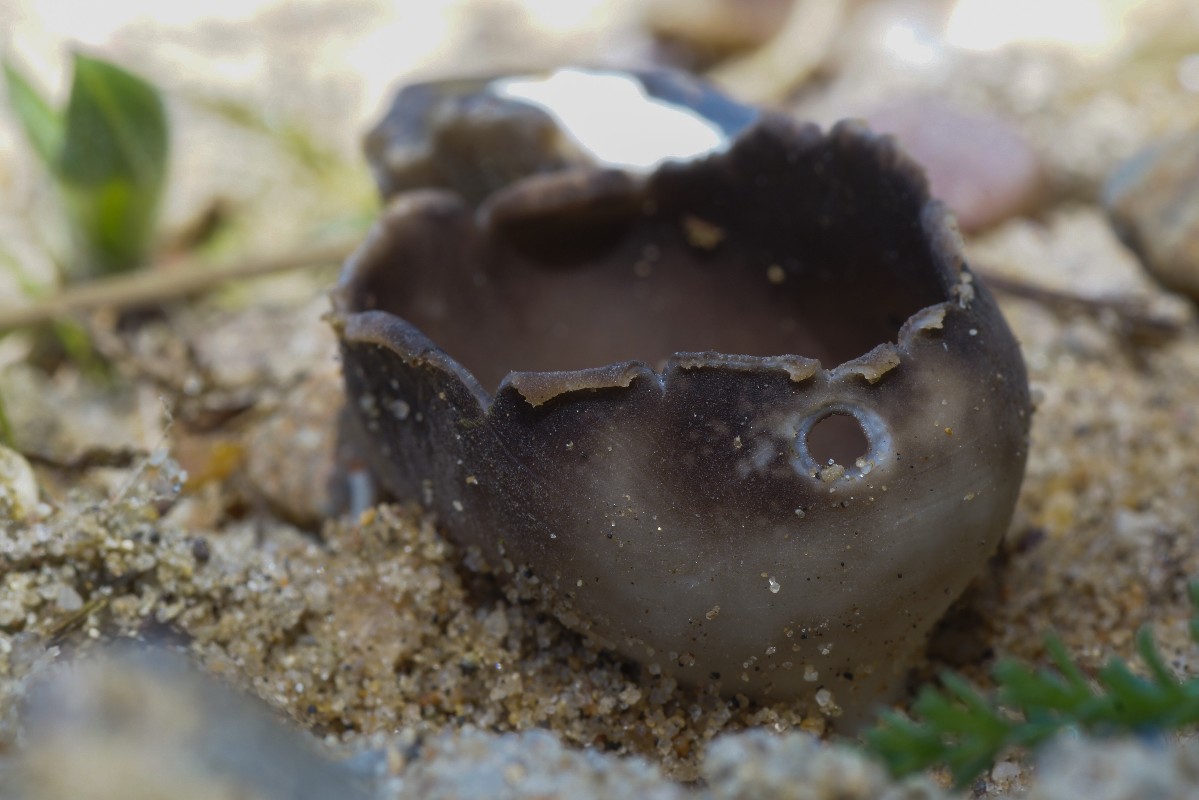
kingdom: Fungi
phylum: Ascomycota
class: Pezizomycetes
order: Pezizales
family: Helvellaceae
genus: Dissingia
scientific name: Dissingia leucomelaena
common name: sorthvid foldhat
